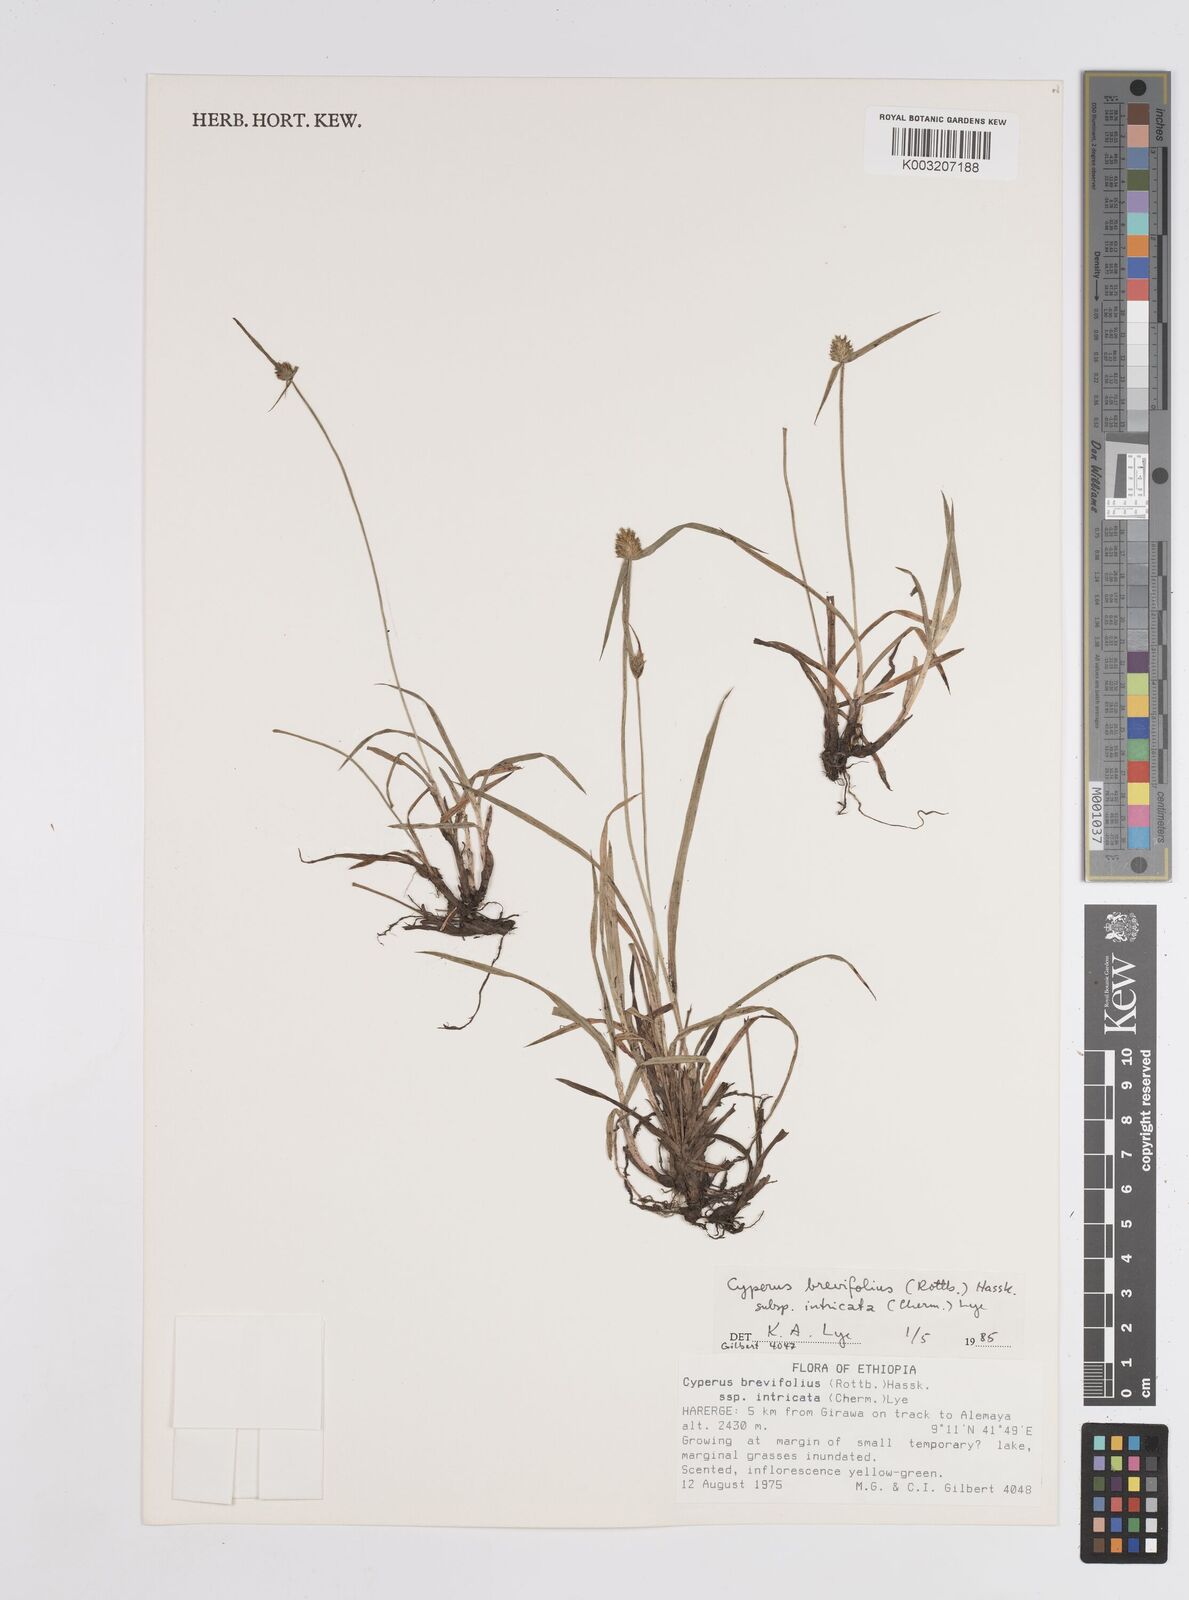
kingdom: Plantae
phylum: Tracheophyta
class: Liliopsida
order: Poales
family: Cyperaceae
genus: Cyperus
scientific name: Cyperus
